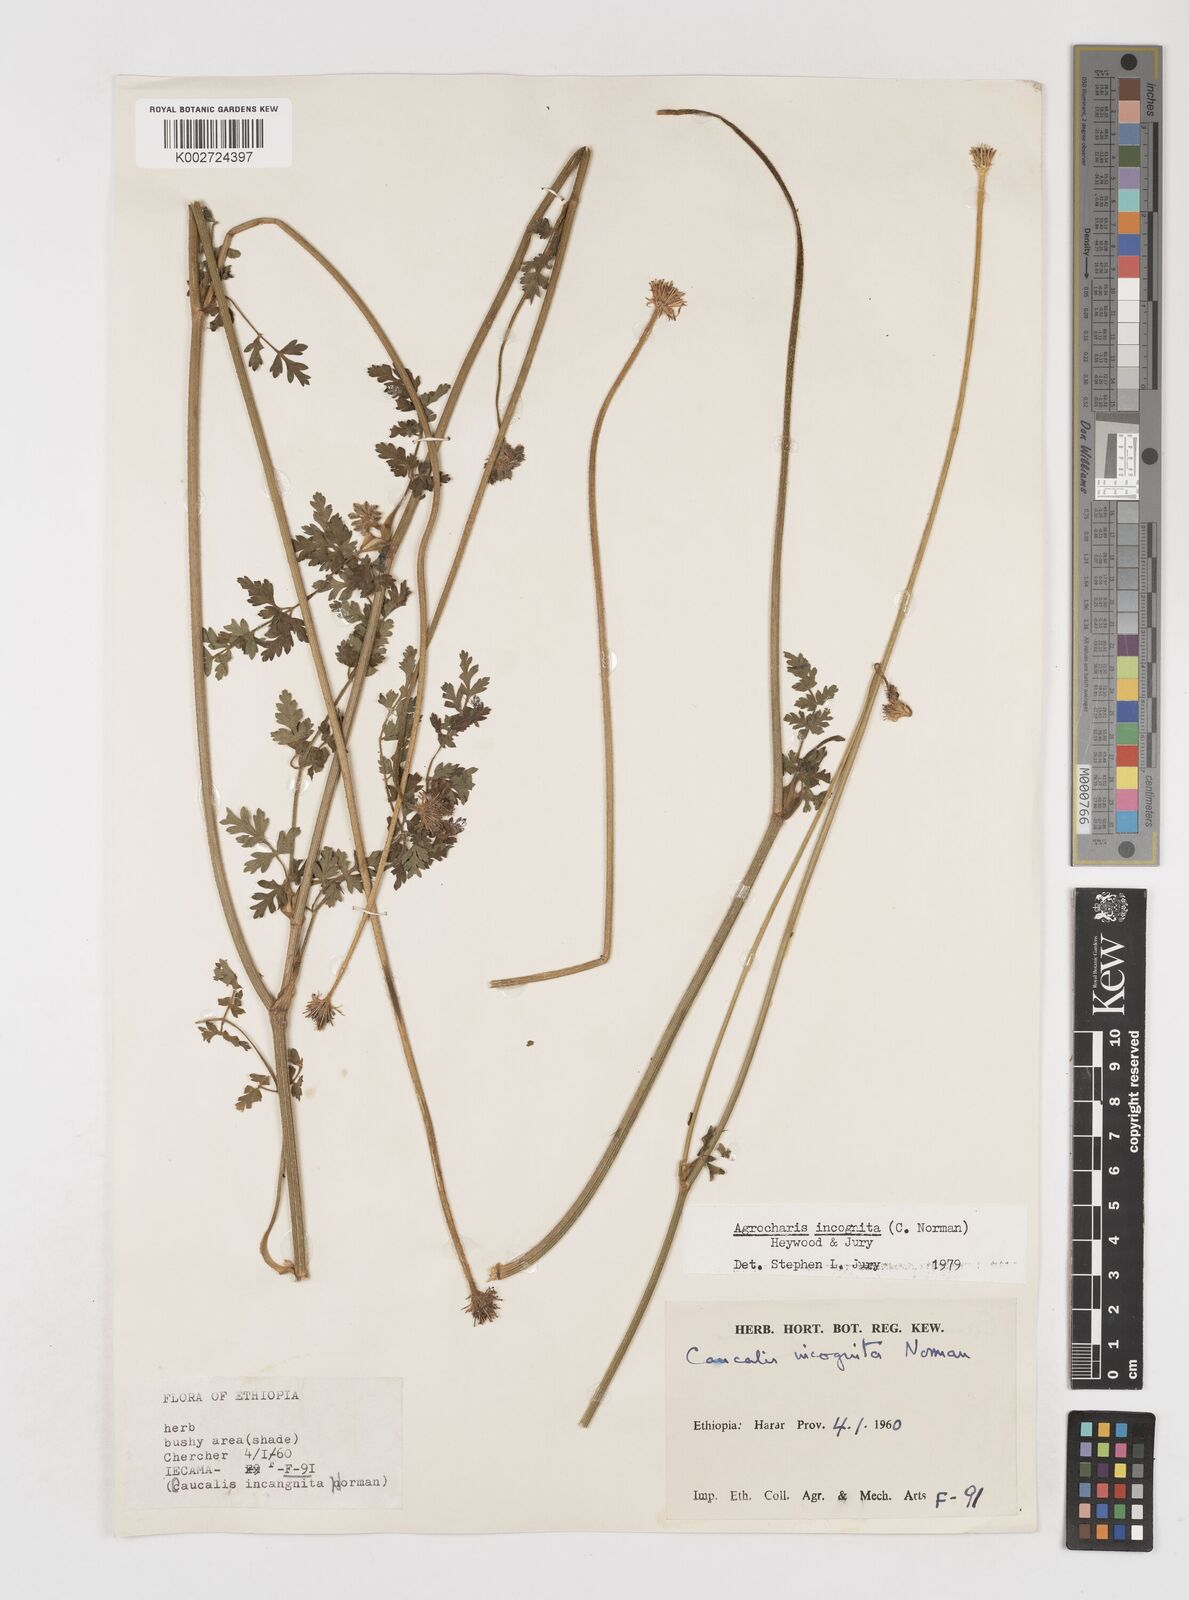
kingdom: Plantae
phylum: Tracheophyta
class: Magnoliopsida
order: Apiales
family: Apiaceae
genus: Daucus
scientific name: Daucus incognitus
